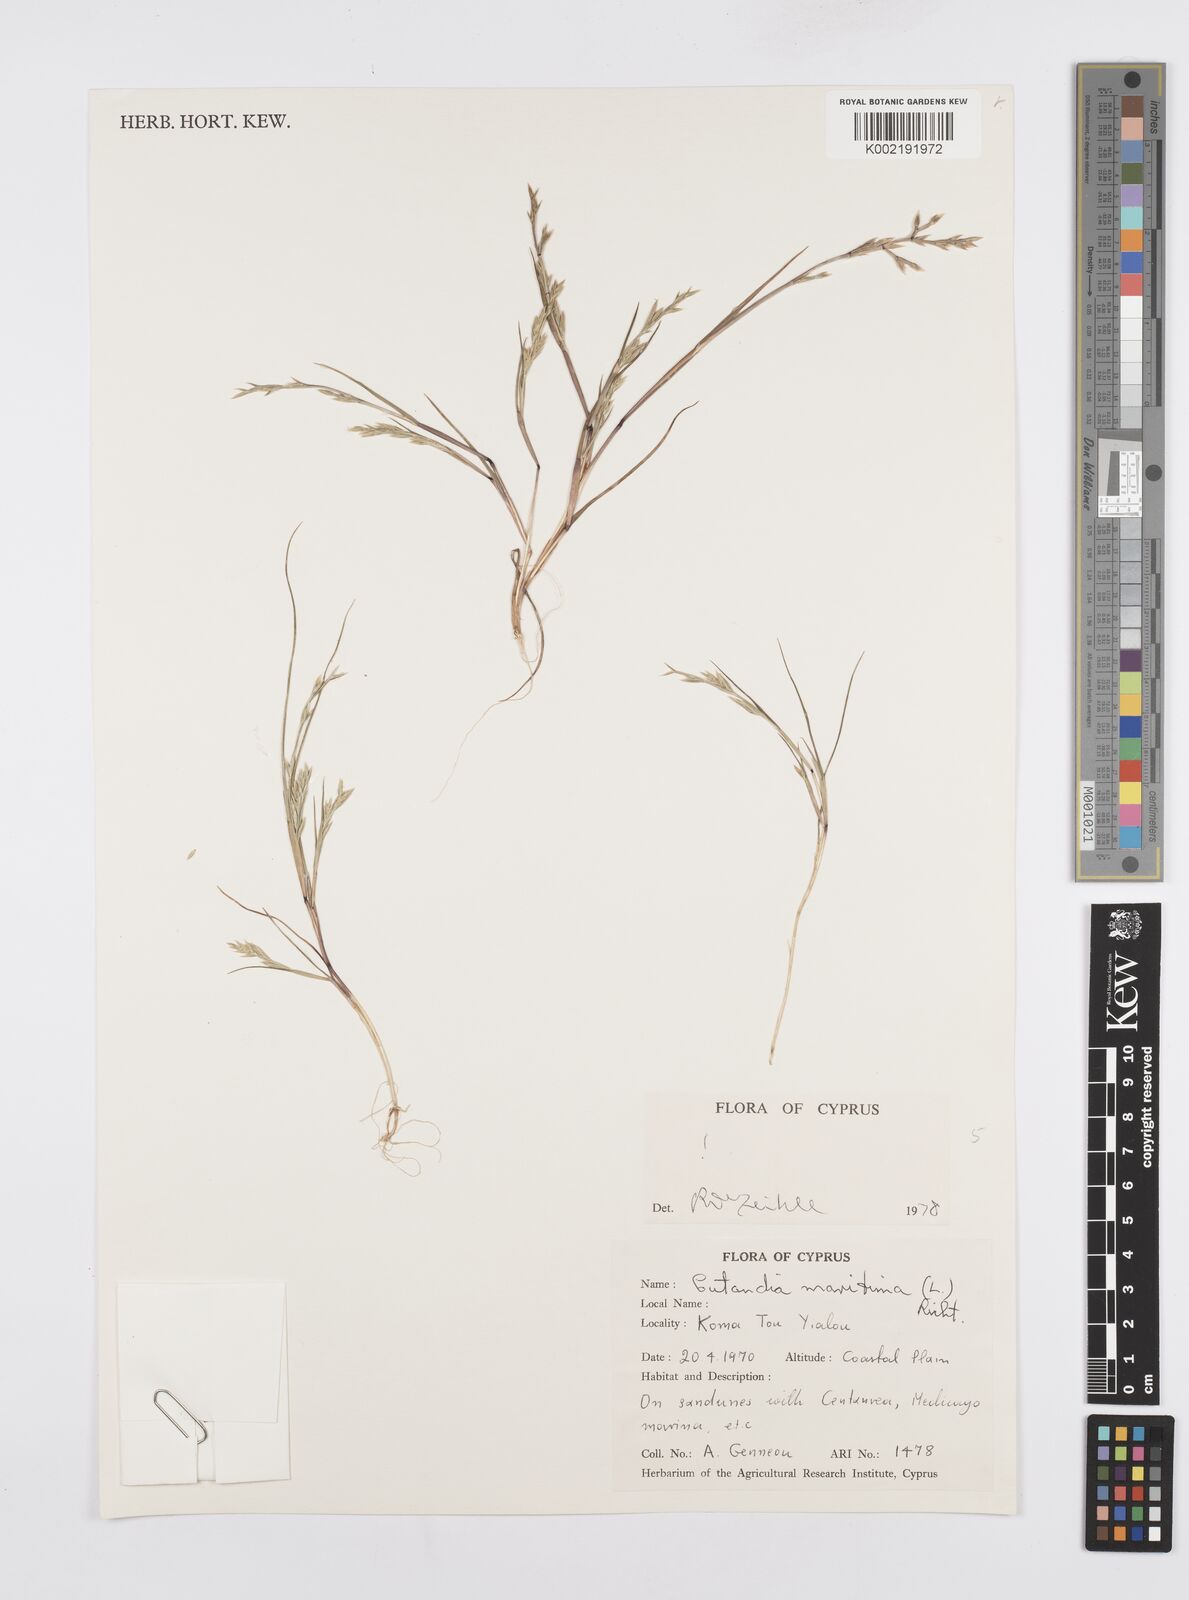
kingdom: Plantae
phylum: Tracheophyta
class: Liliopsida
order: Poales
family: Poaceae
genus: Cutandia
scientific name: Cutandia maritima
